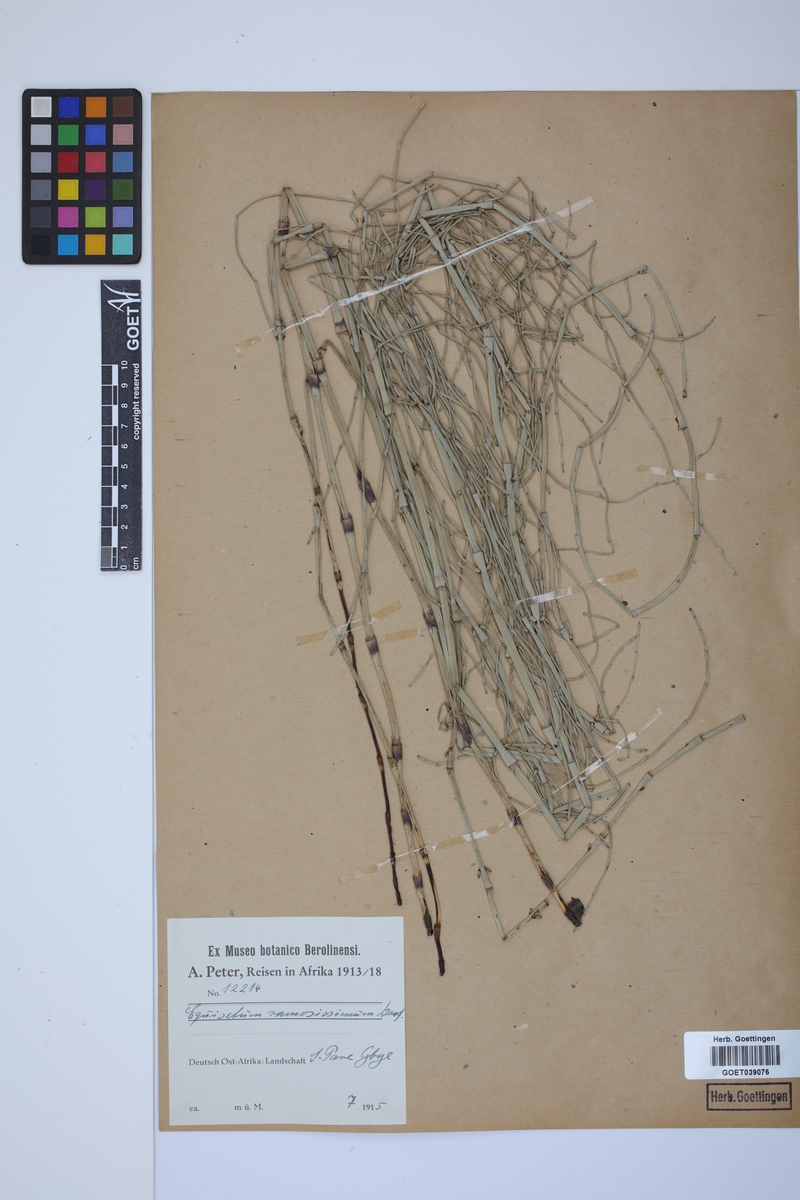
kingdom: Plantae
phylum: Tracheophyta
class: Polypodiopsida
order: Equisetales
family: Equisetaceae
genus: Equisetum
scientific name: Equisetum giganteum
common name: Giant horsetail
